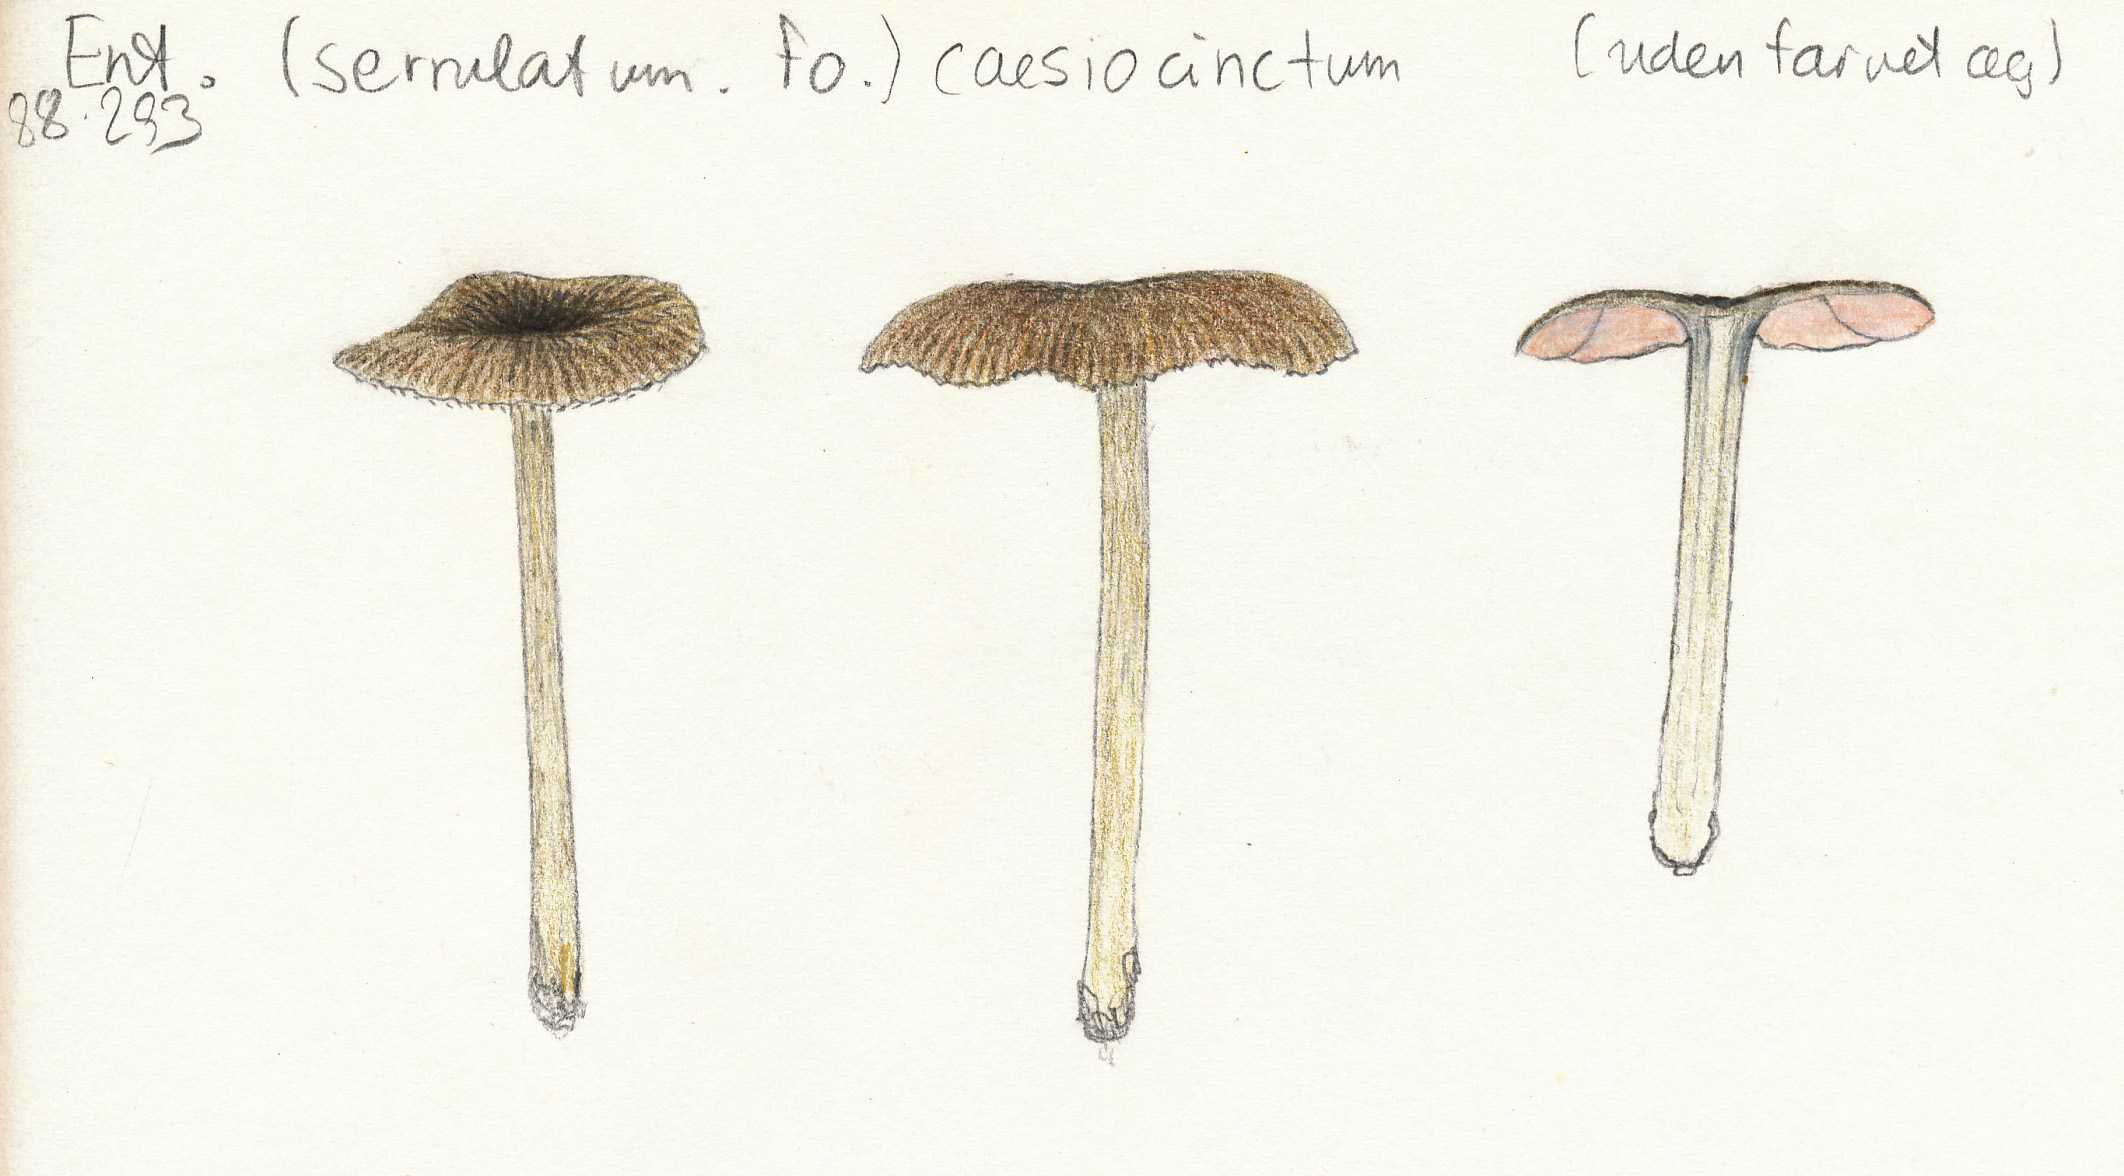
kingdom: Fungi
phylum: Basidiomycota
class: Agaricomycetes
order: Agaricales
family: Entolomataceae
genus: Entoloma
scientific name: Entoloma caesiocinctum
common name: Blue-girdled pinkgill
